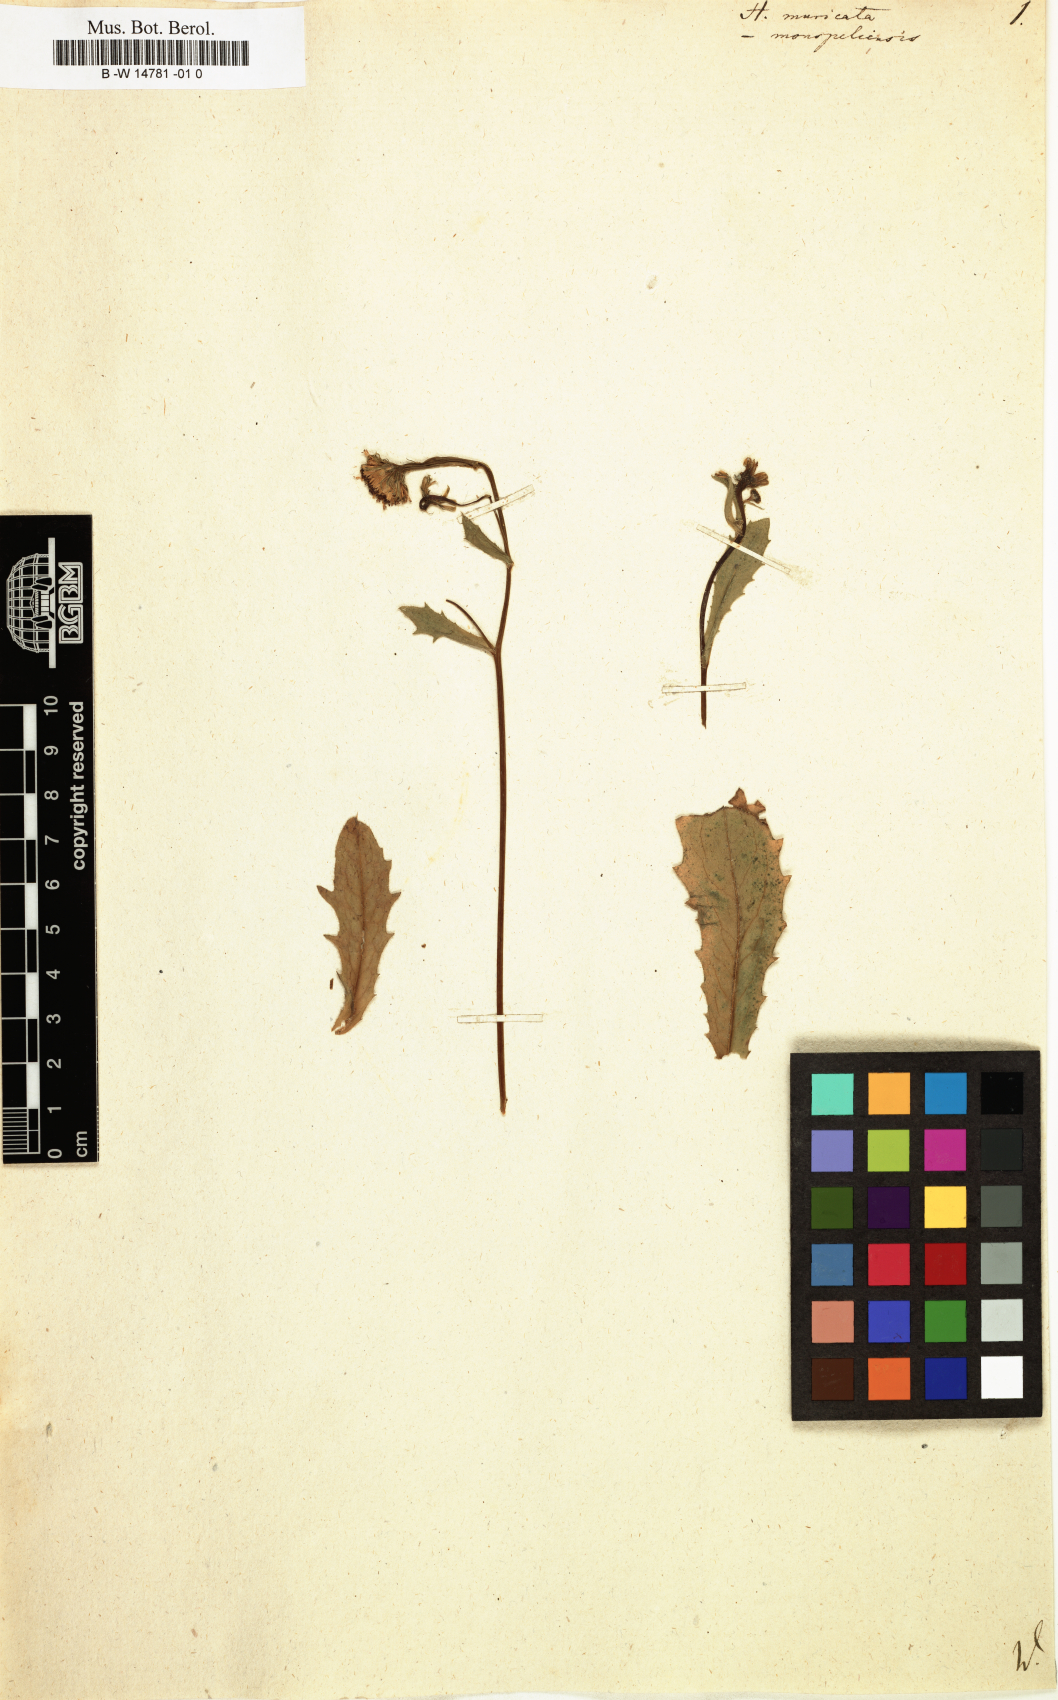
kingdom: Plantae
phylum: Tracheophyta
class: Magnoliopsida
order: Asterales
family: Asteraceae
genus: Hedypnois
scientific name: Hedypnois rhagadioloides
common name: Cretan weed
